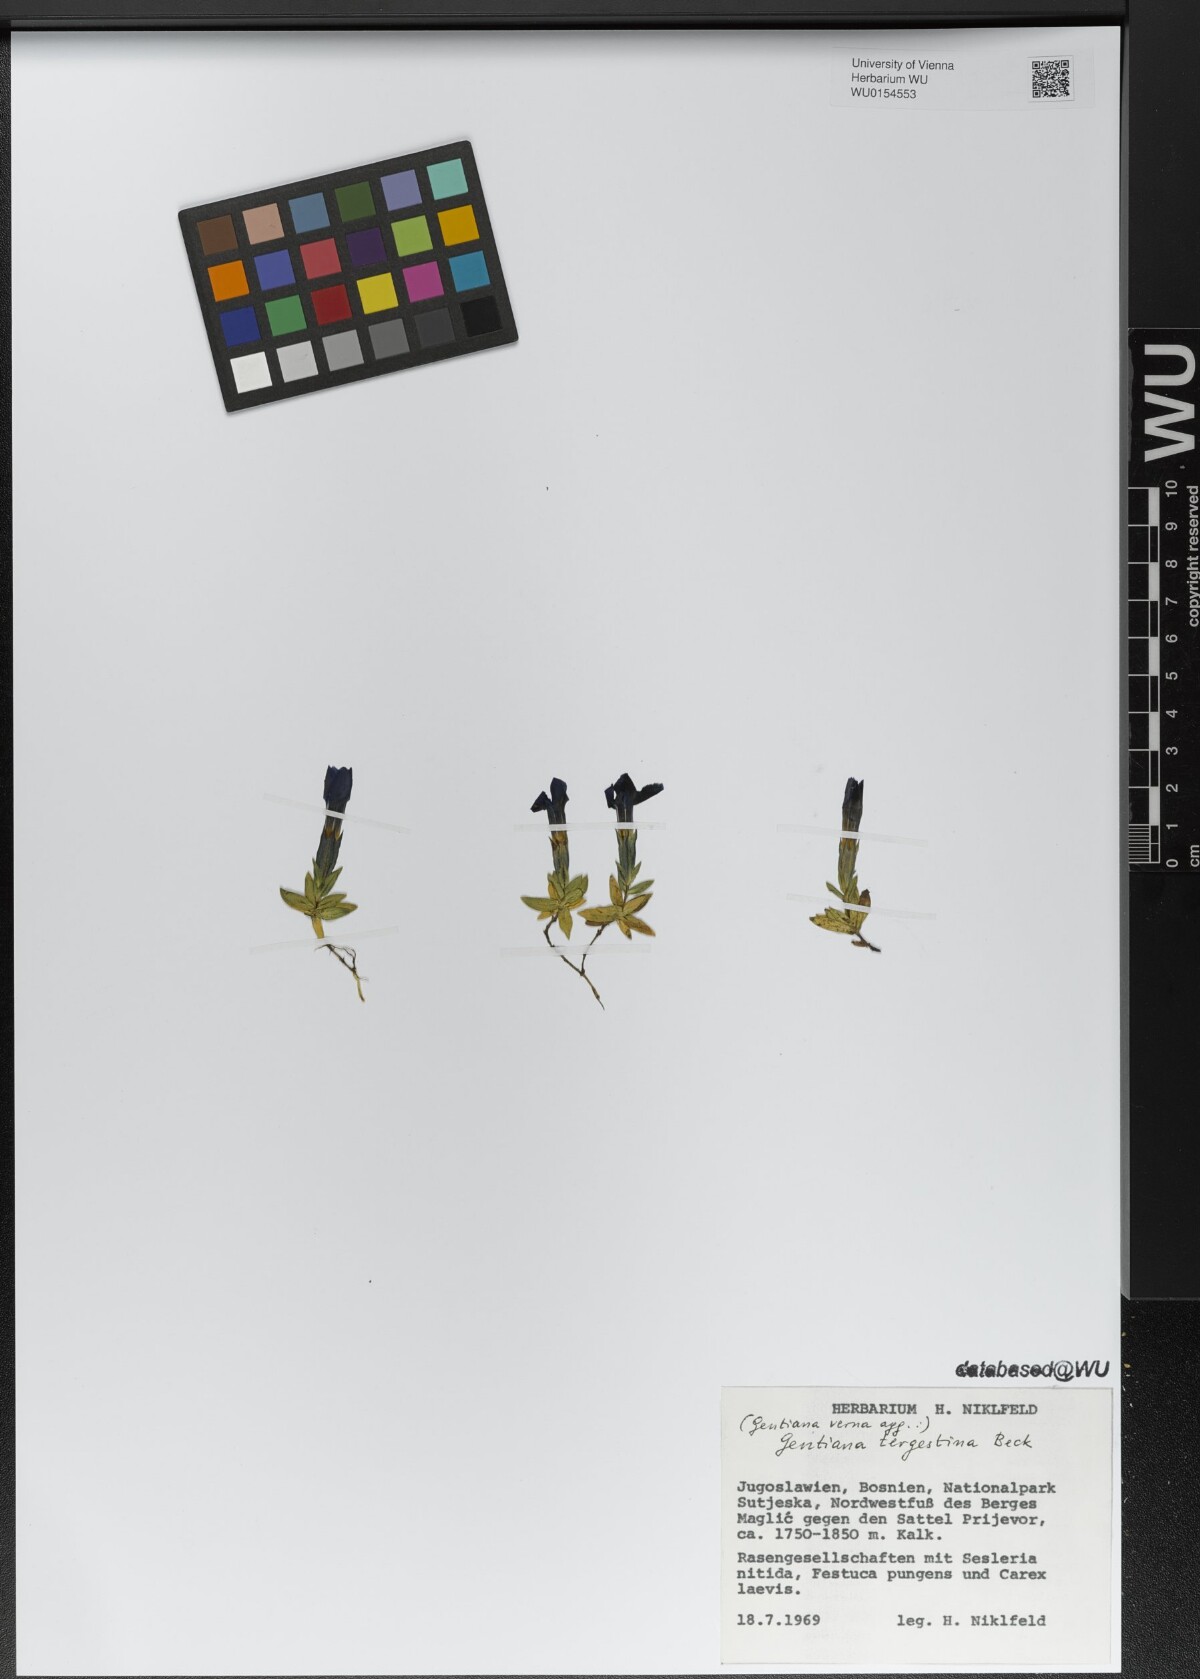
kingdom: Plantae
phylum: Tracheophyta
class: Magnoliopsida
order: Gentianales
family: Gentianaceae
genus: Gentiana
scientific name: Gentiana verna
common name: Spring gentian
